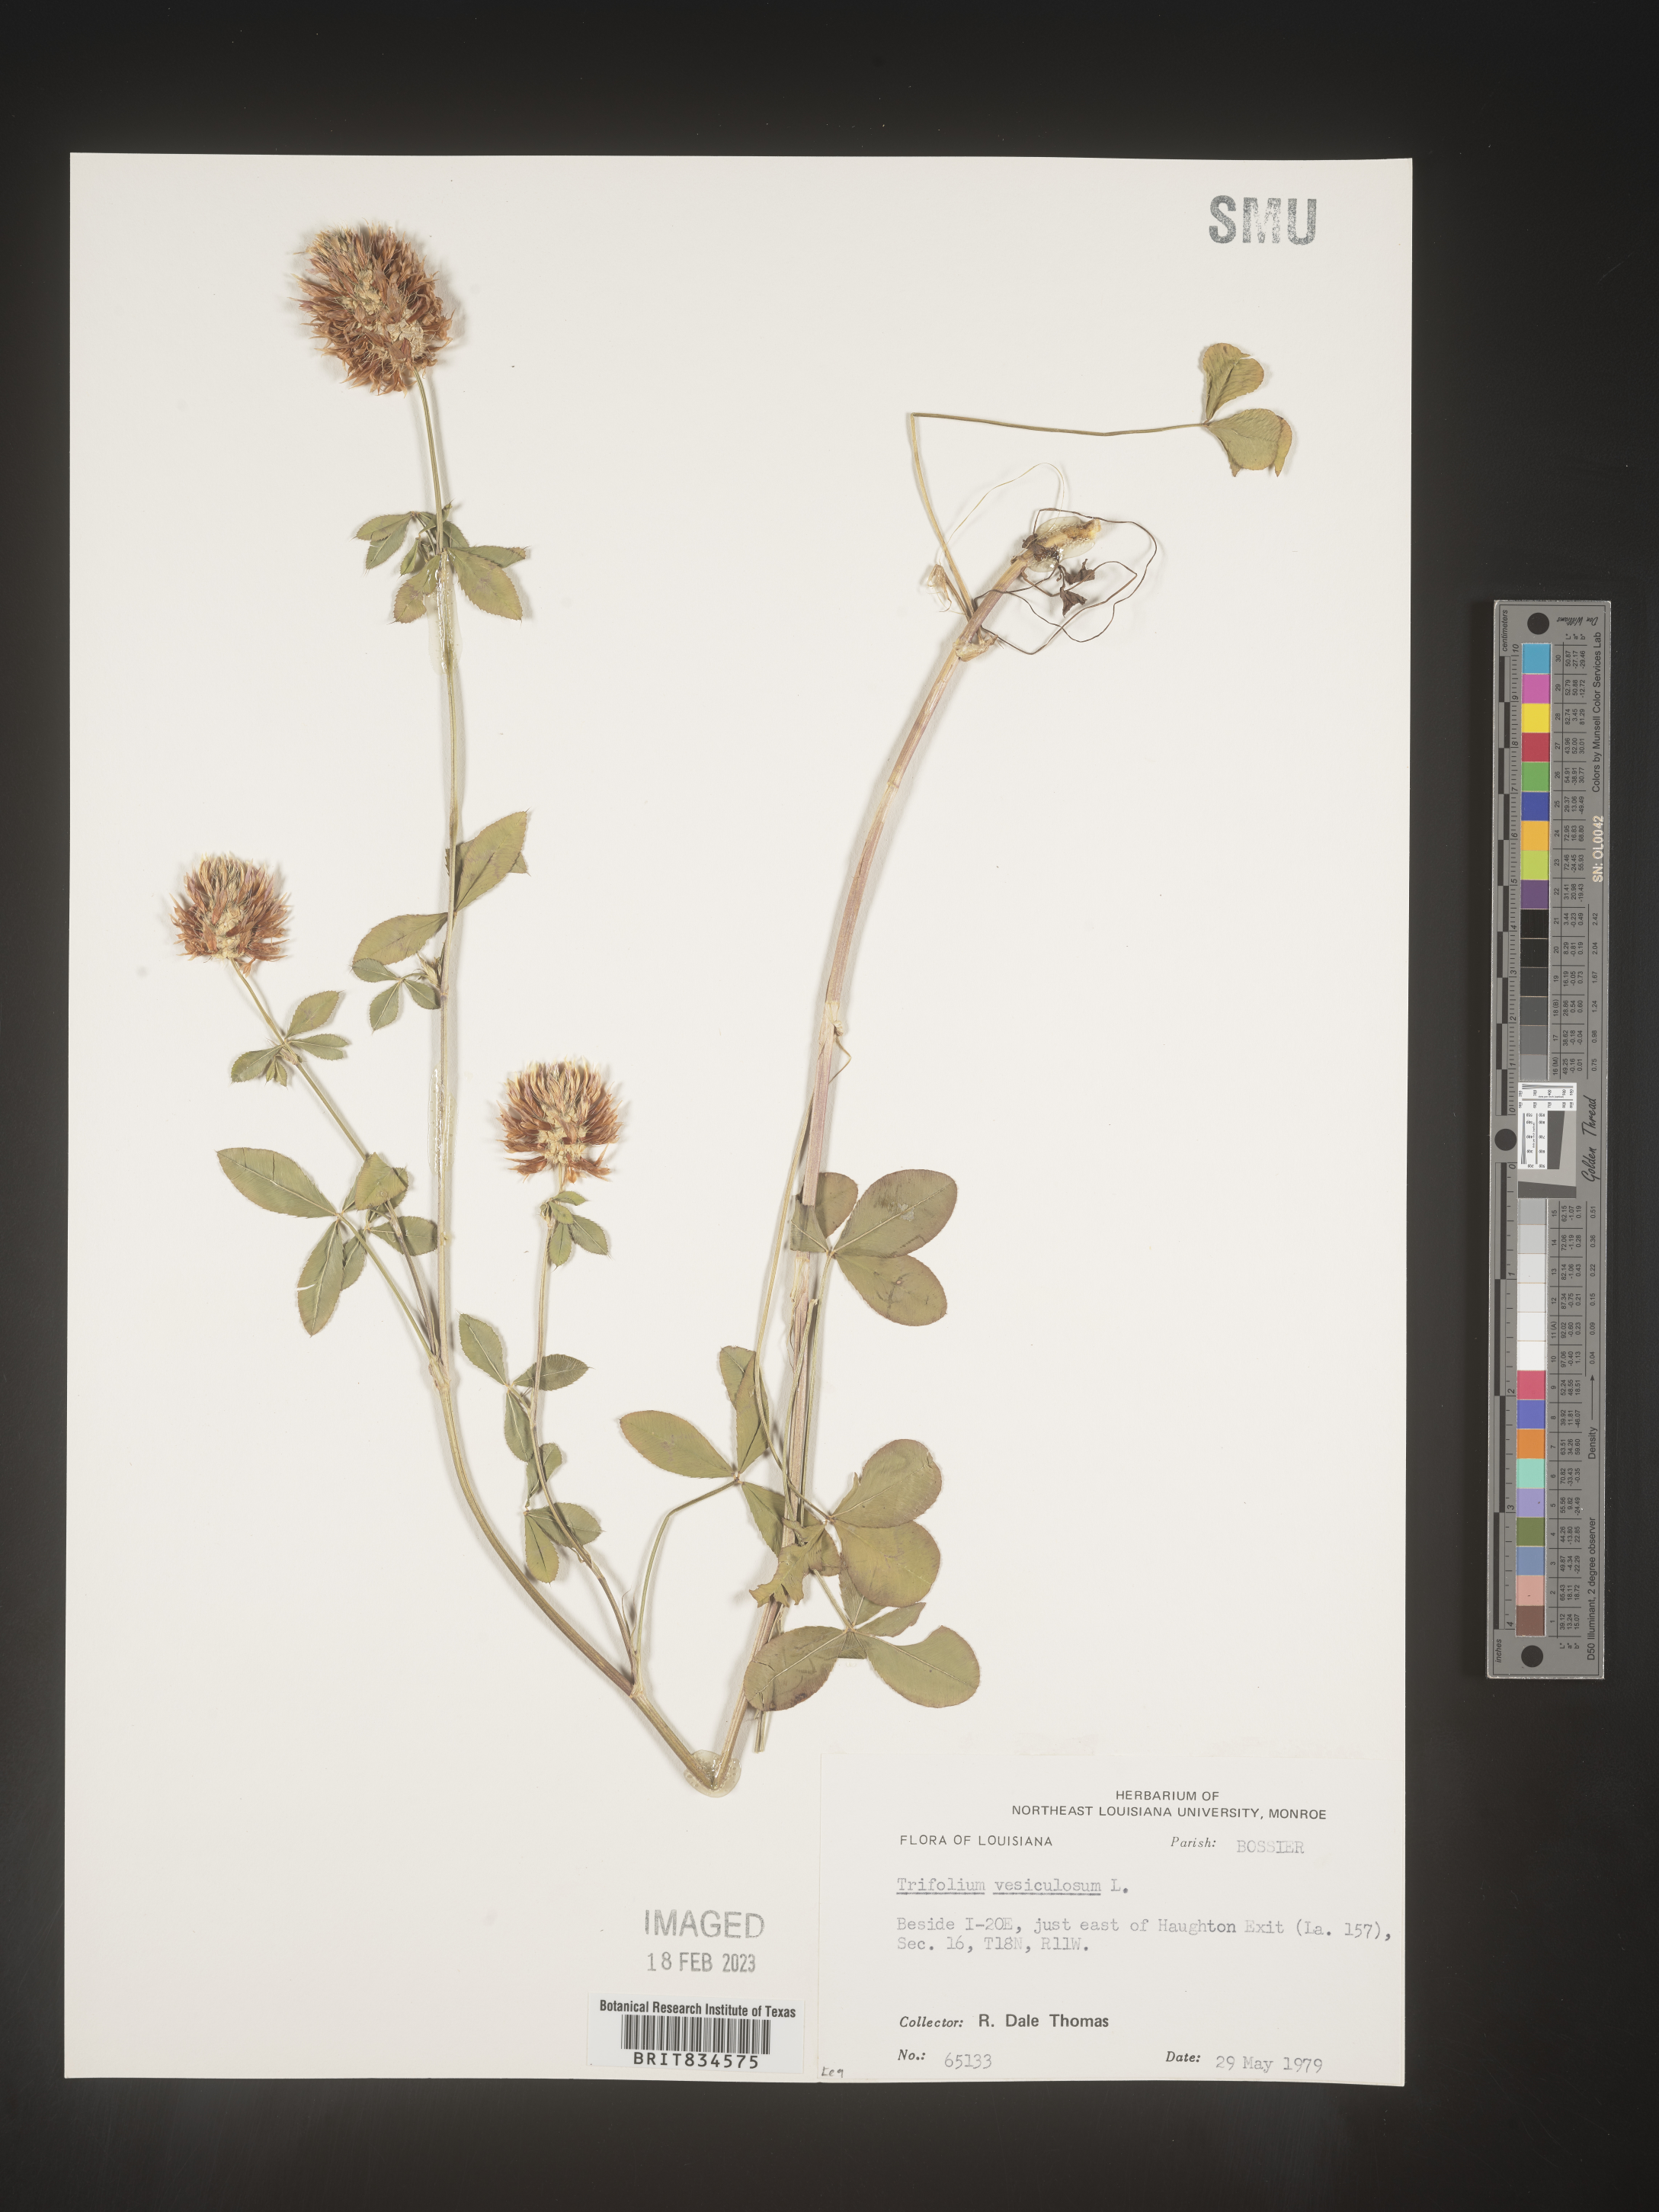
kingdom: Plantae
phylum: Tracheophyta
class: Magnoliopsida
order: Fabales
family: Fabaceae
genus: Trifolium
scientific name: Trifolium
